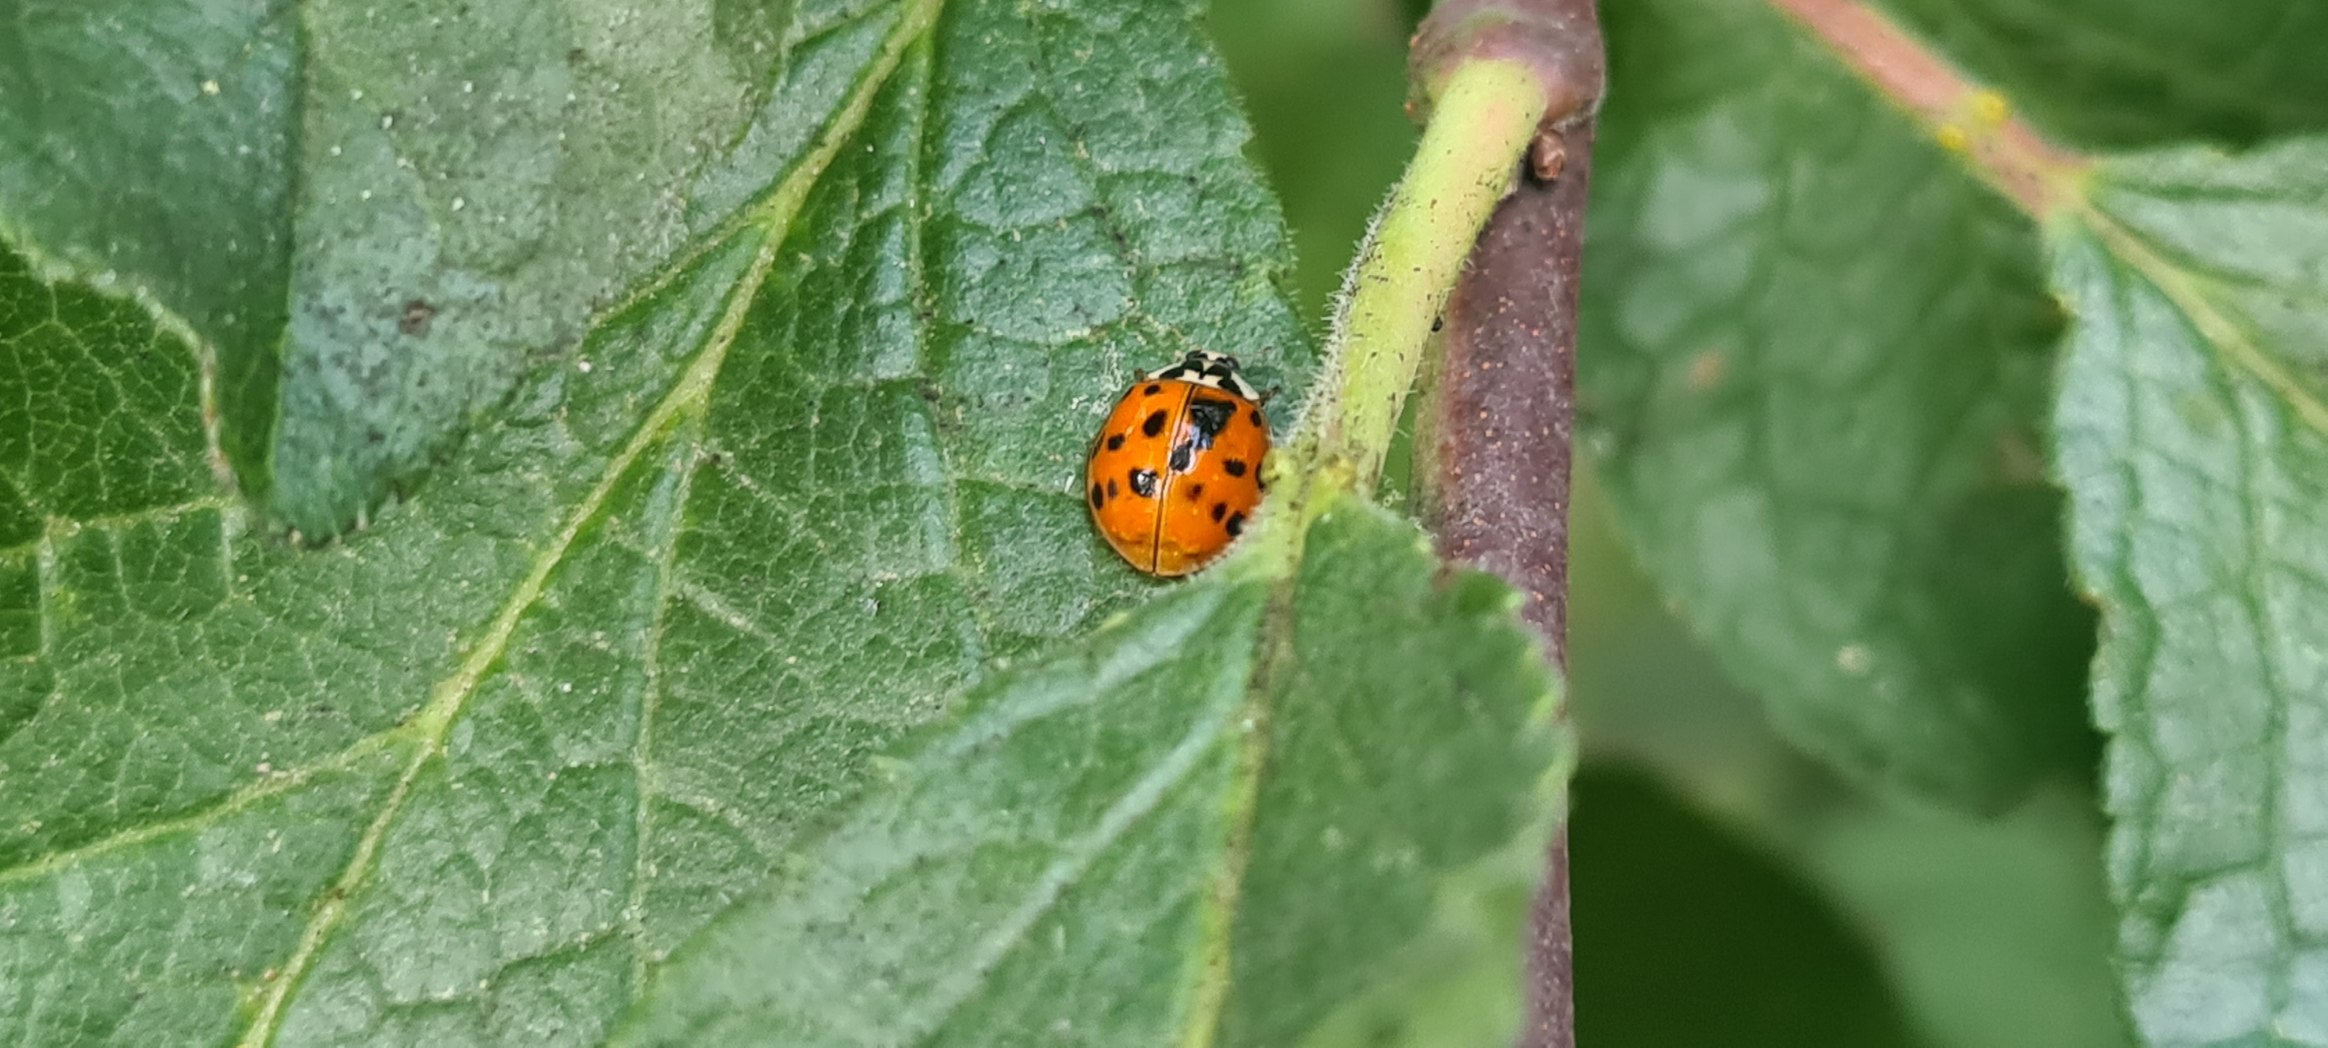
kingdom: Animalia
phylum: Arthropoda
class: Insecta
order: Coleoptera
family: Coccinellidae
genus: Harmonia
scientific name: Harmonia axyridis
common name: Harlekinmariehøne
